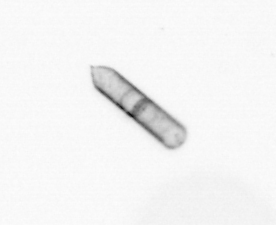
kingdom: Chromista
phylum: Ochrophyta
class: Bacillariophyceae
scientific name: Bacillariophyceae
